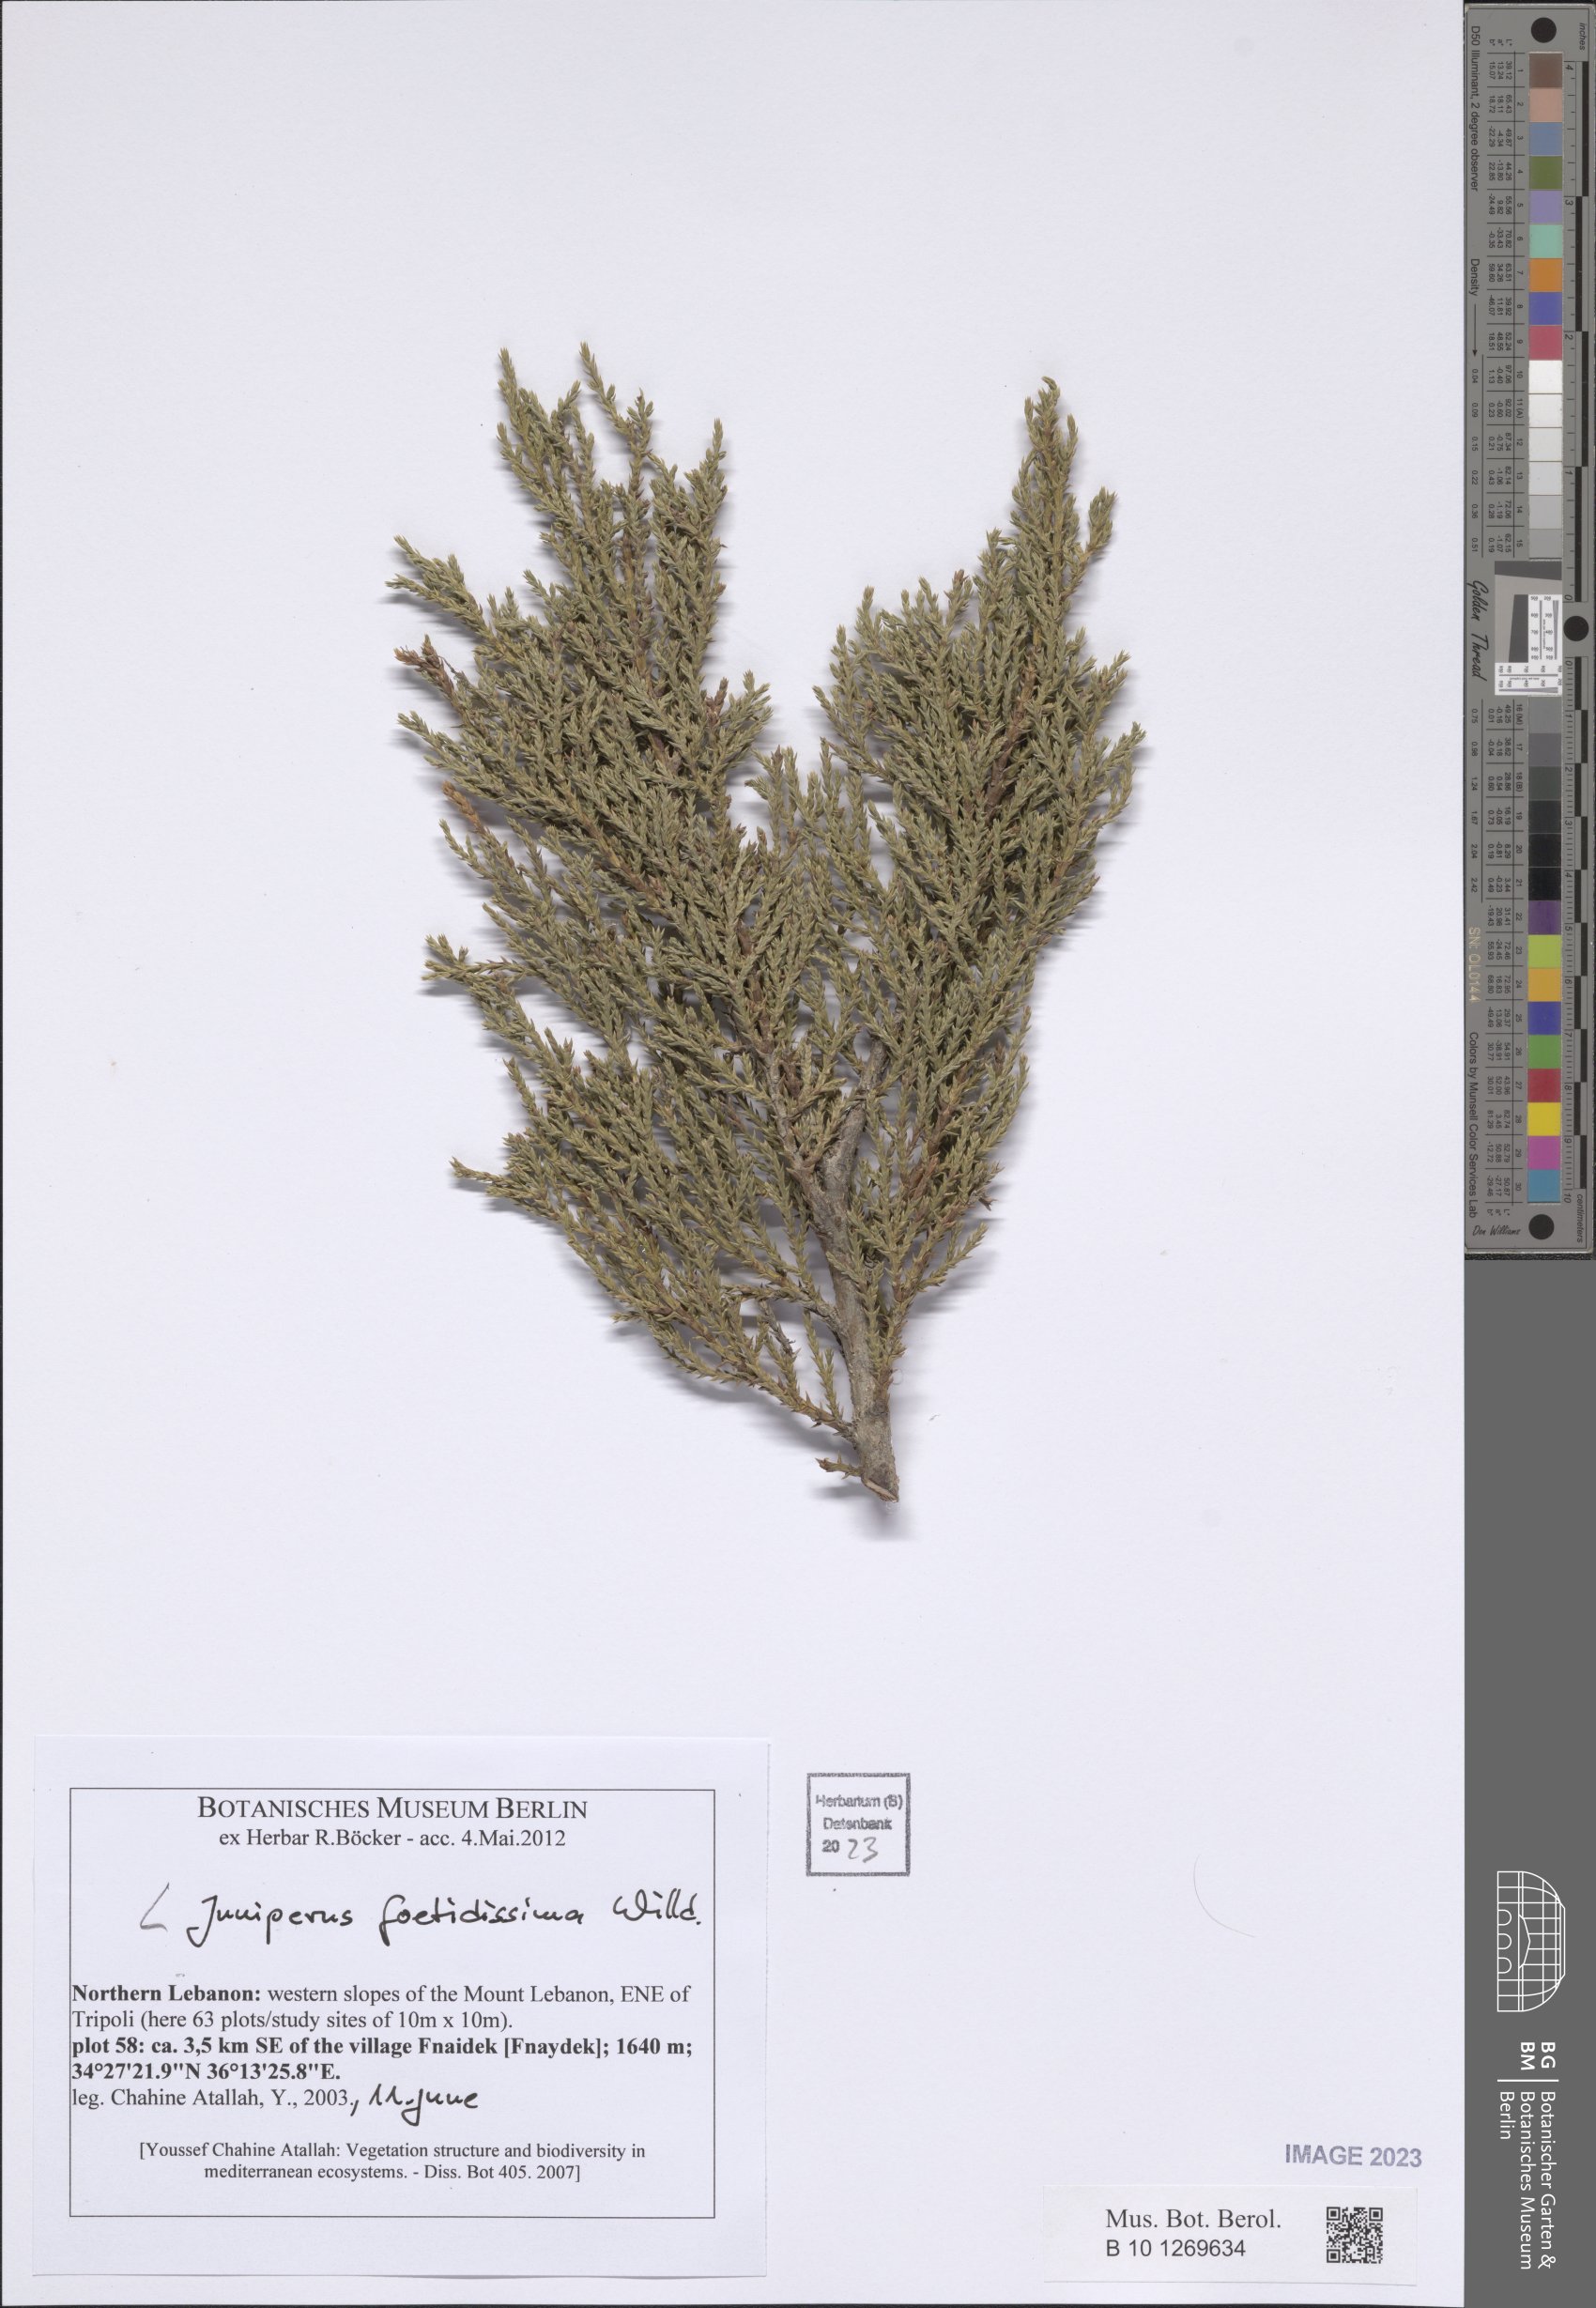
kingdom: Plantae
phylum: Tracheophyta
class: Pinopsida
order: Pinales
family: Cupressaceae
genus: Juniperus
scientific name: Juniperus foetidissima
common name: Stinking juniper
